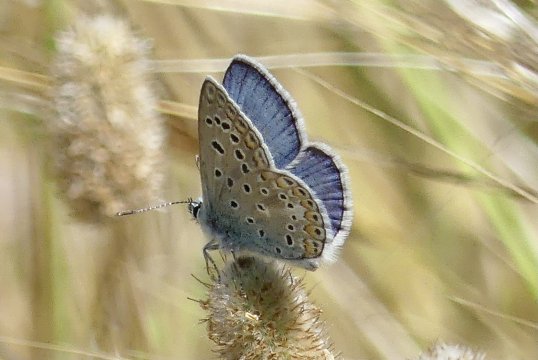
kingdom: Animalia
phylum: Arthropoda
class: Insecta
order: Lepidoptera
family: Lycaenidae
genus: Polyommatus
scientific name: Polyommatus icarus
